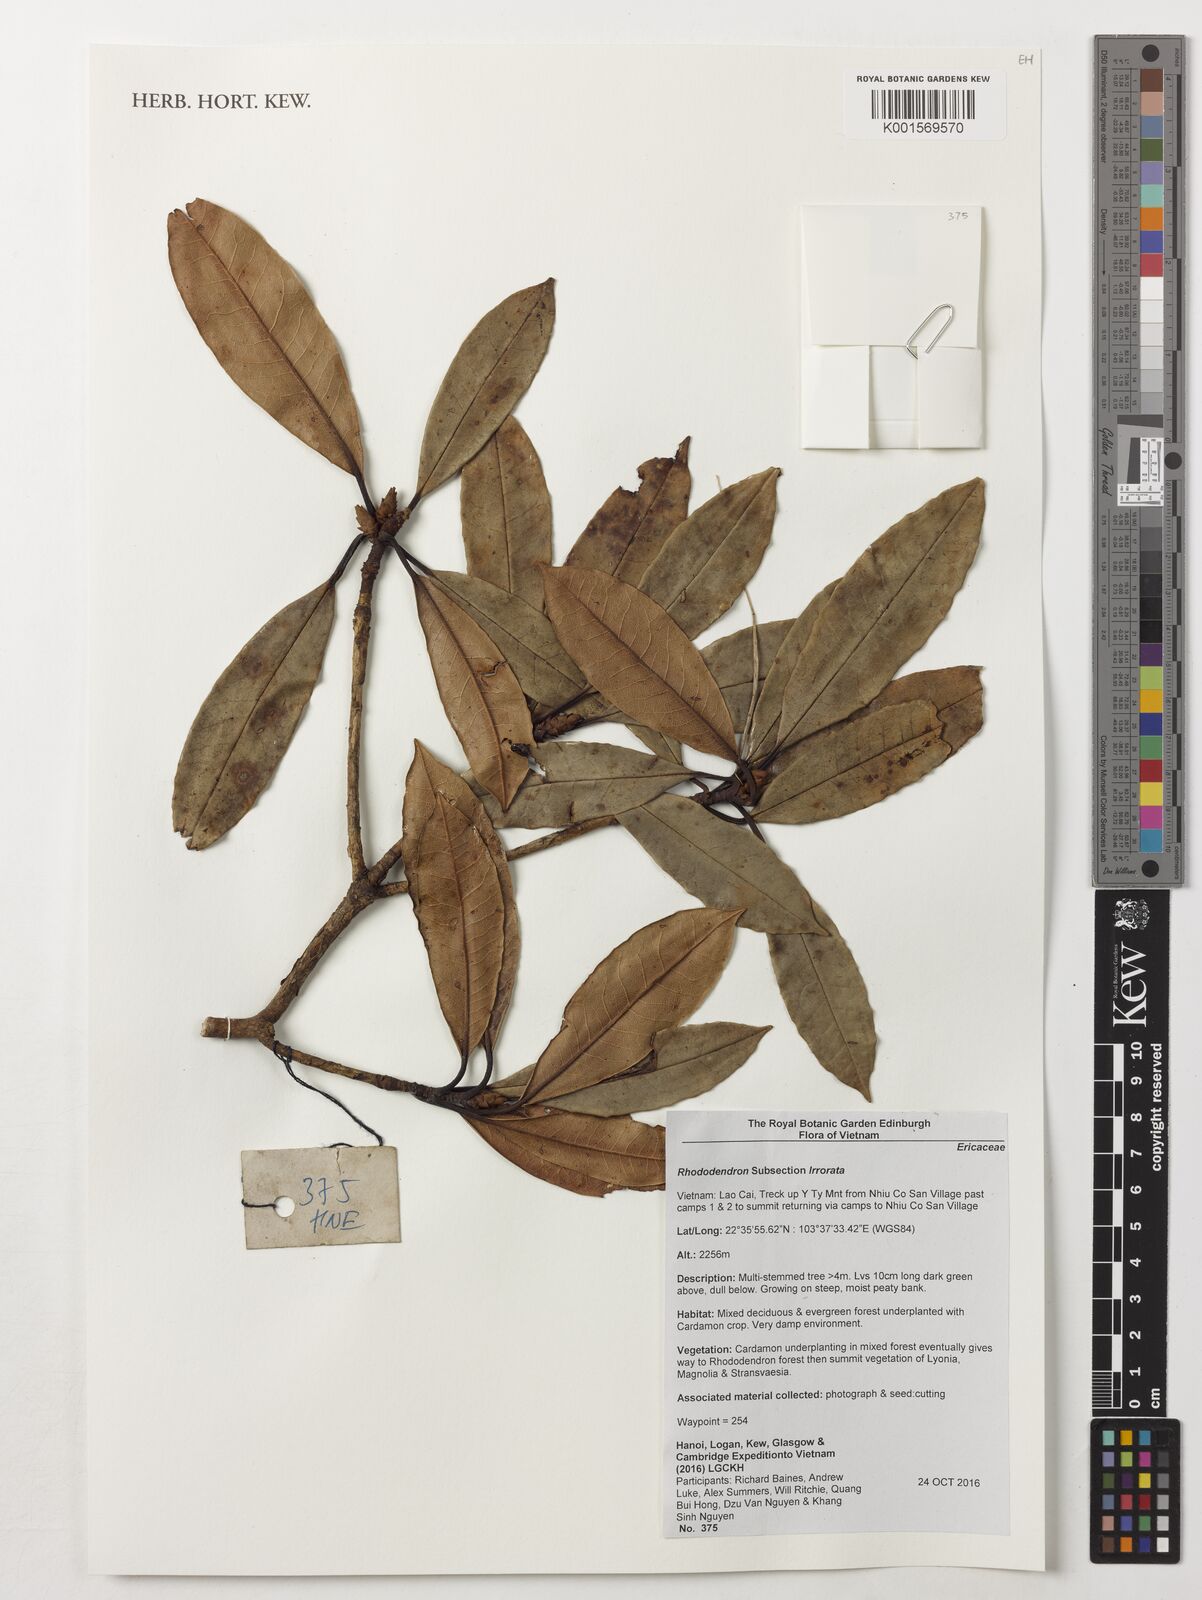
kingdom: Plantae
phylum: Tracheophyta
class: Magnoliopsida
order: Ericales
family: Ericaceae
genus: Rhododendron
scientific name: Rhododendron
